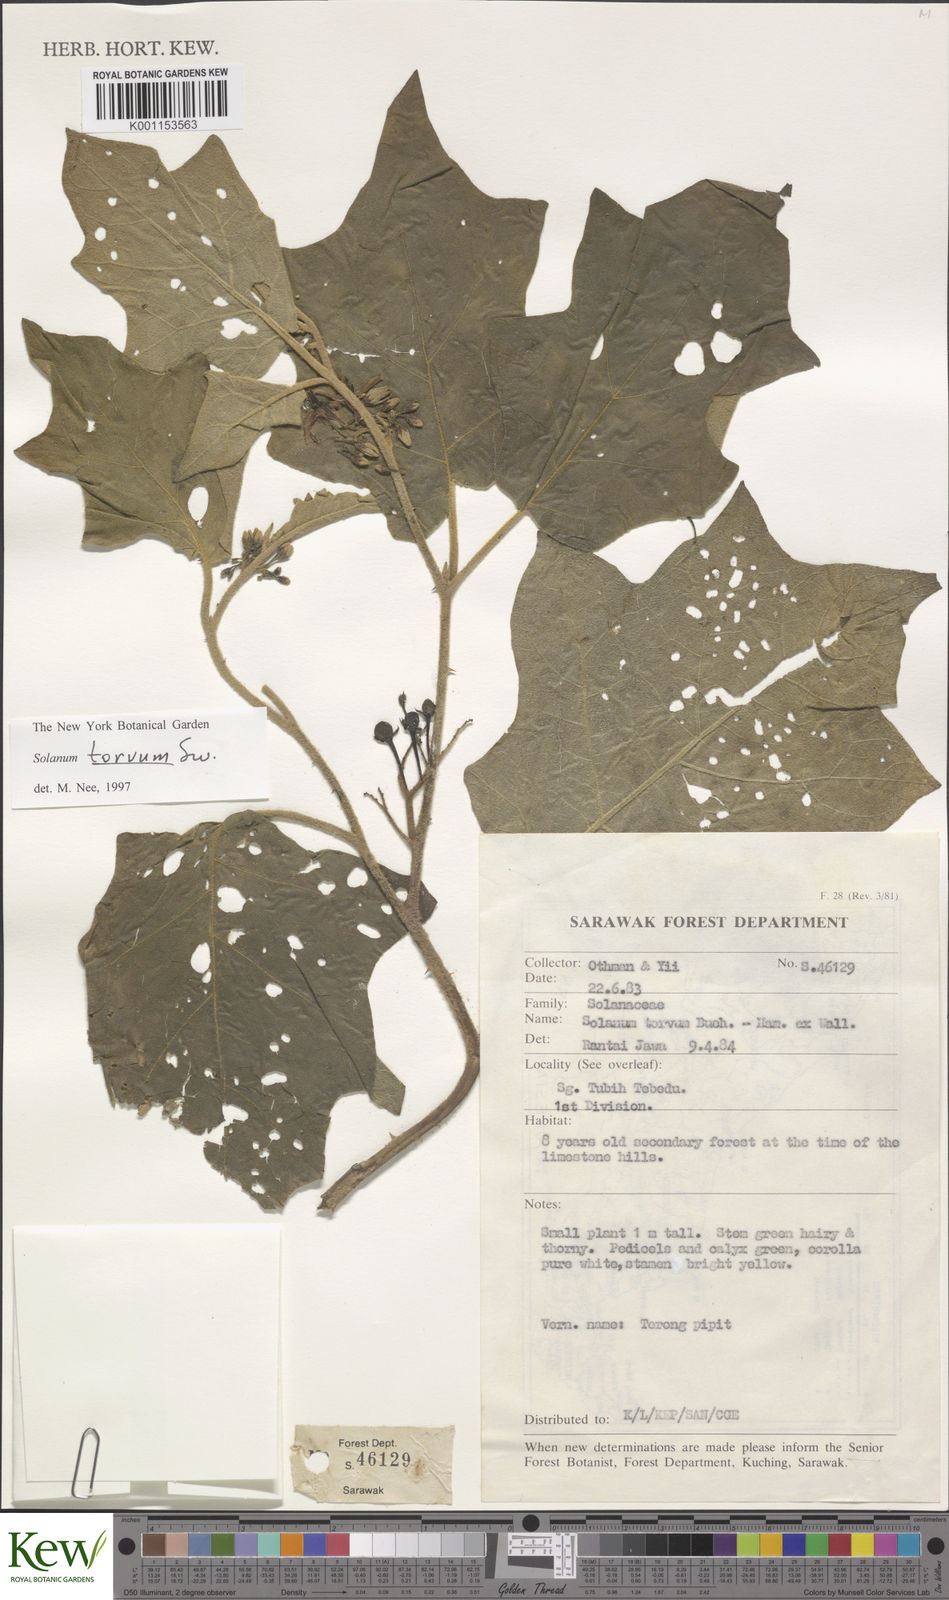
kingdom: Plantae
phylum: Tracheophyta
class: Magnoliopsida
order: Solanales
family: Solanaceae
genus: Solanum
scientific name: Solanum torvum
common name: Turkey berry
